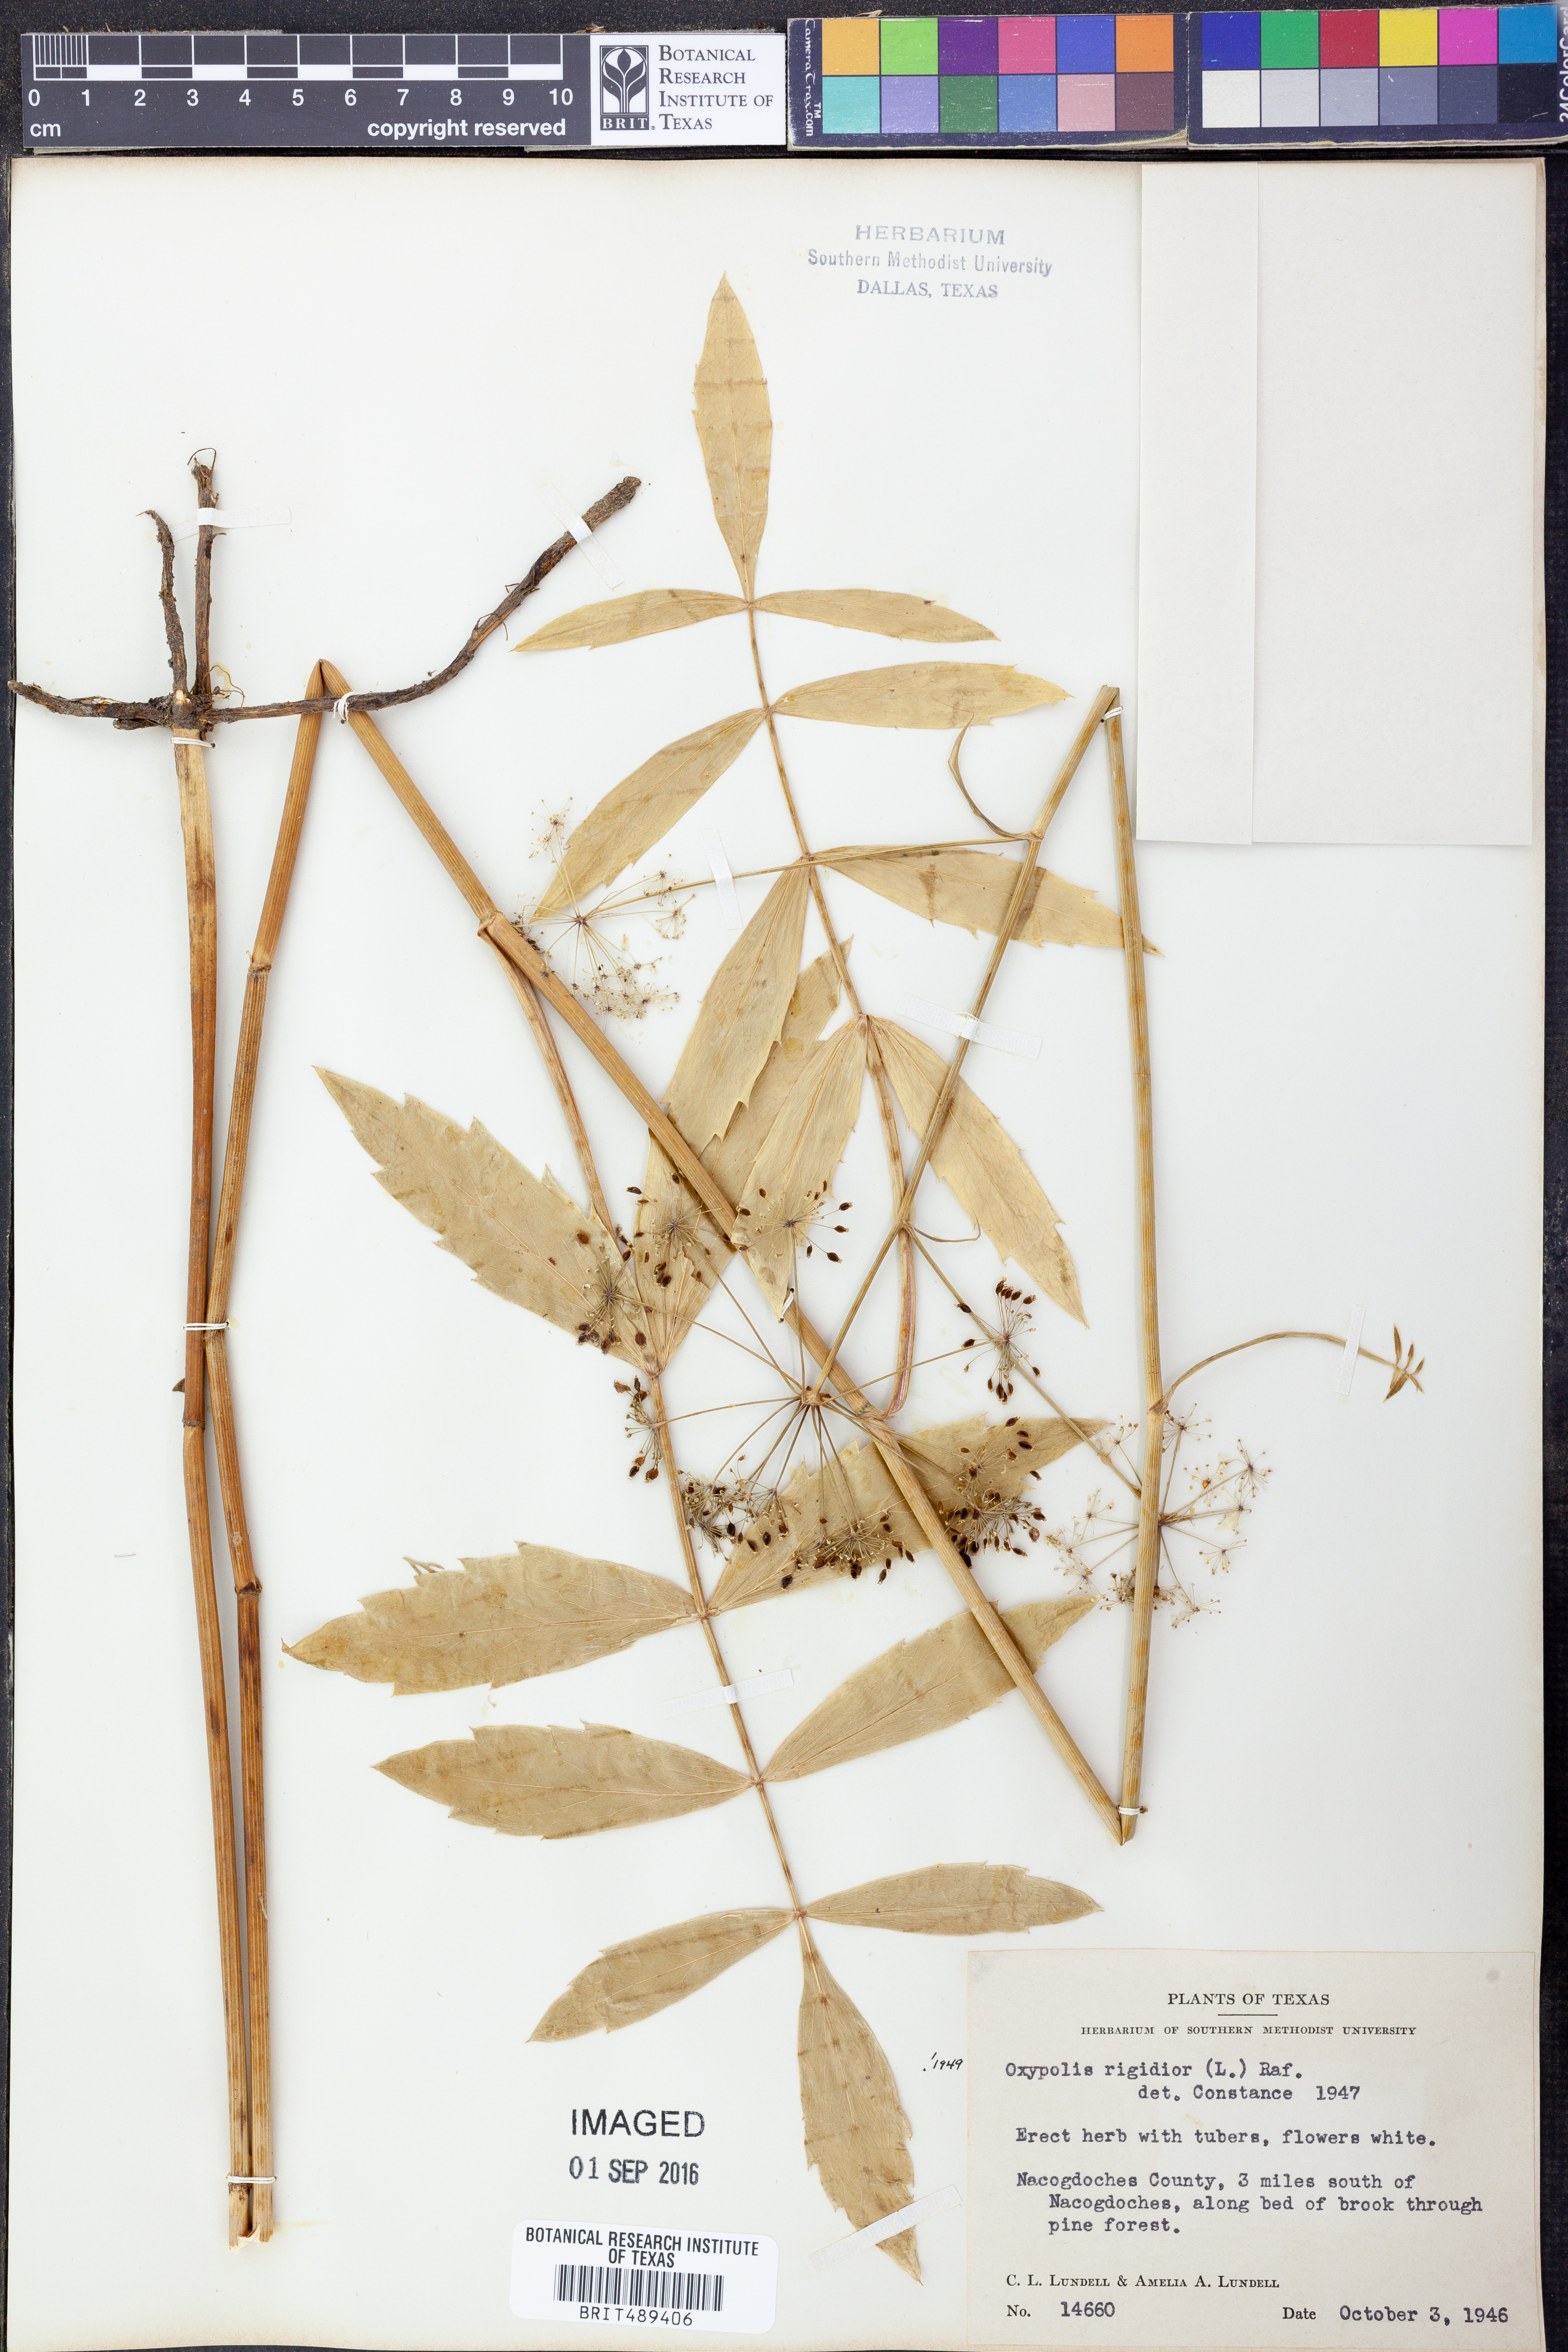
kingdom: Plantae
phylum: Tracheophyta
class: Magnoliopsida
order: Apiales
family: Apiaceae
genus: Oxypolis
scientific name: Oxypolis rigidior
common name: Cowbane
